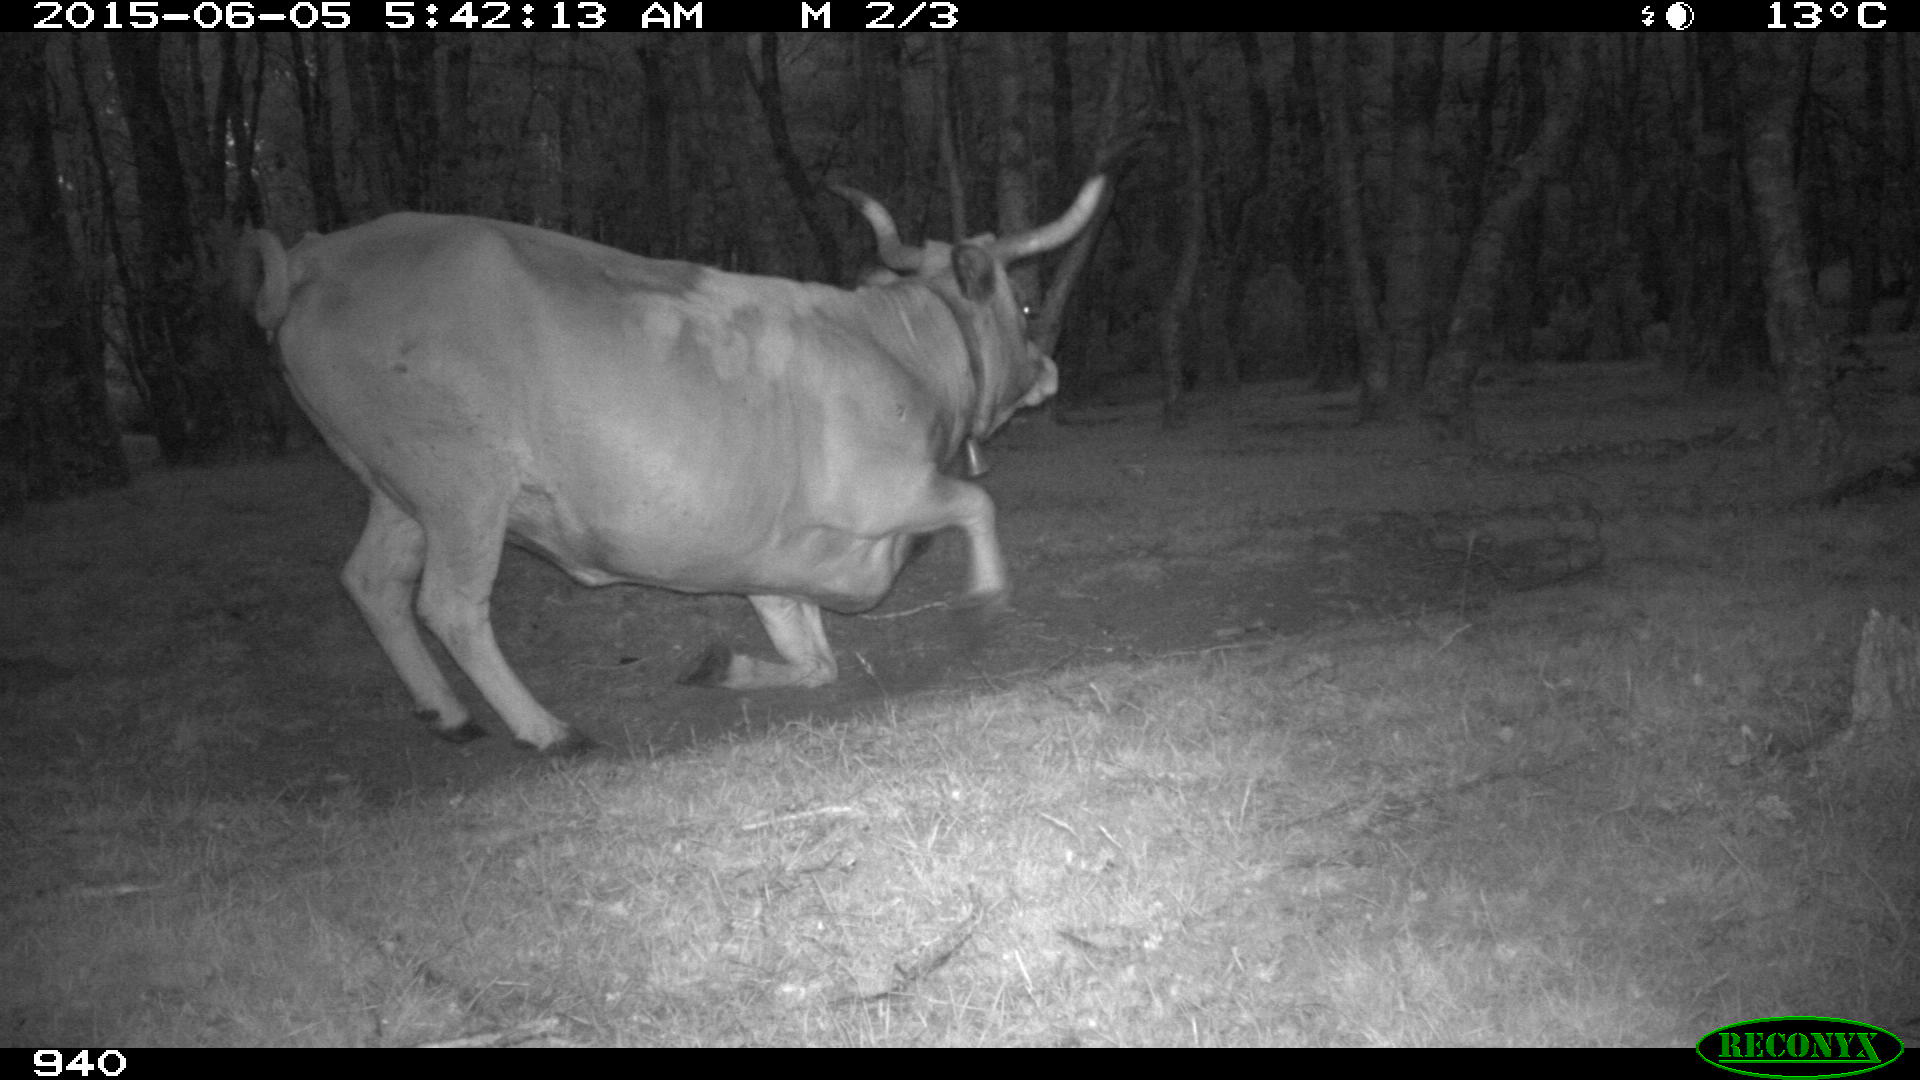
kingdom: Animalia
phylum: Chordata
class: Mammalia
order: Artiodactyla
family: Bovidae
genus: Bos
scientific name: Bos taurus
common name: Domesticated cattle
